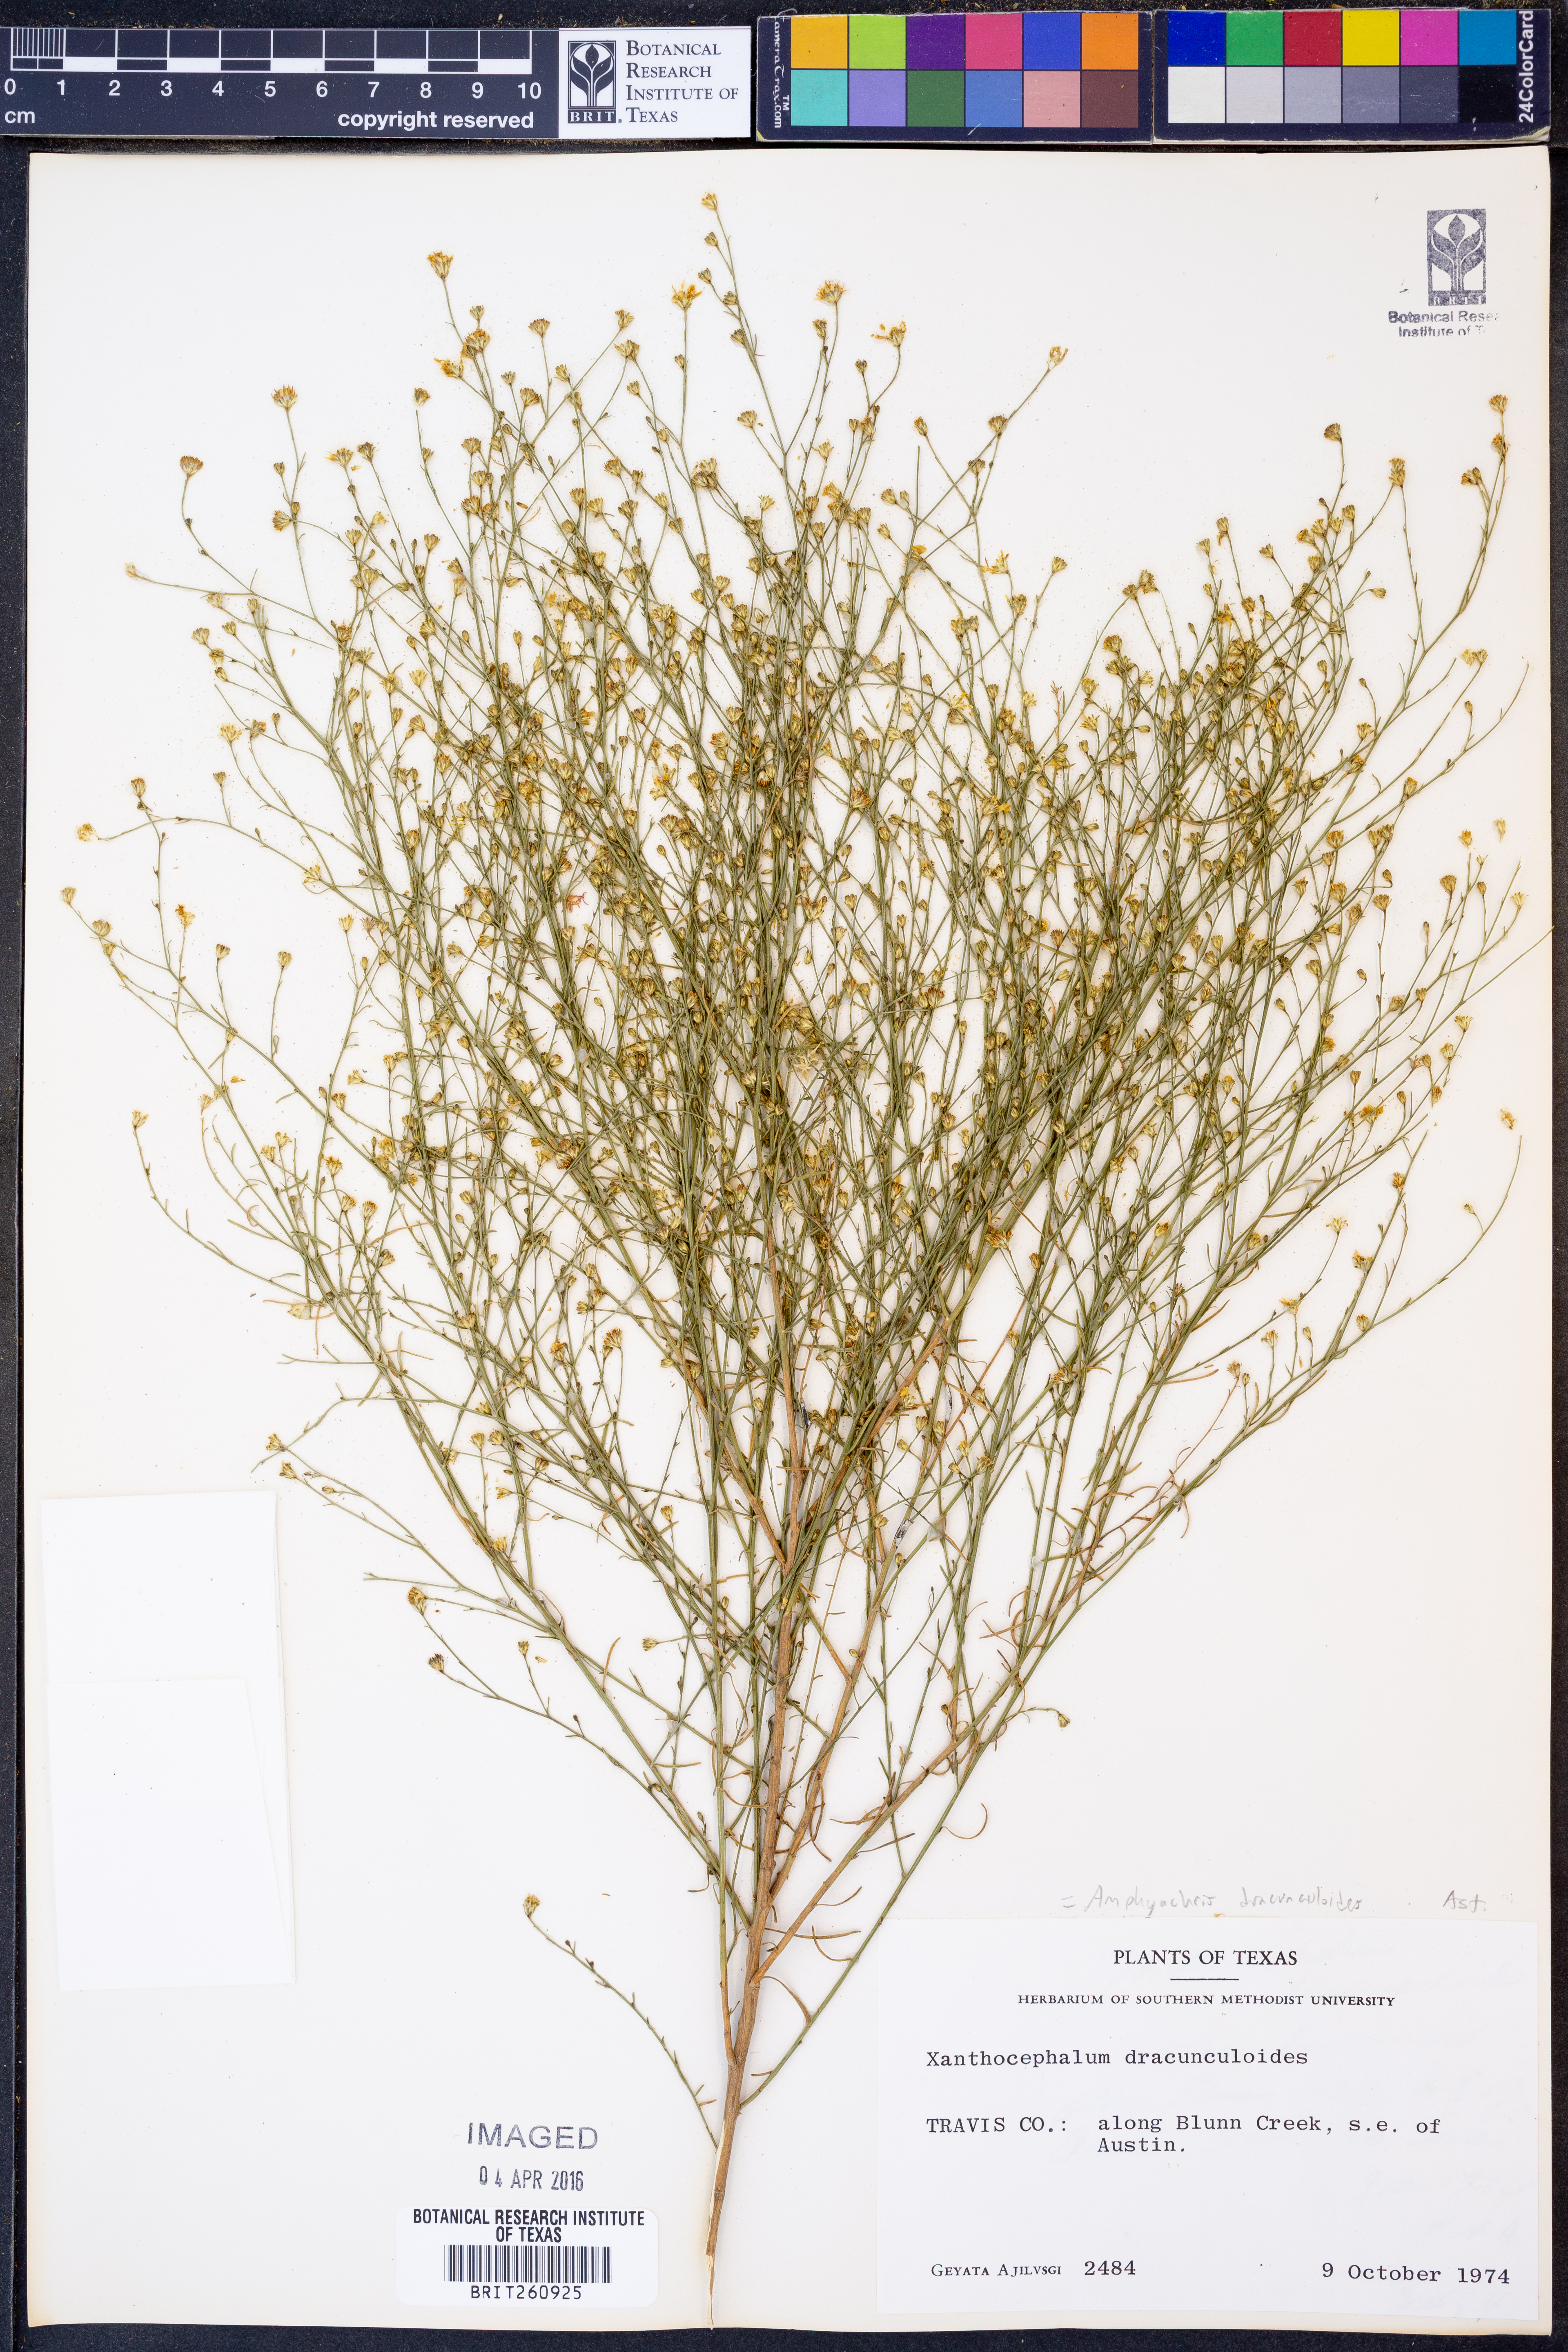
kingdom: Plantae
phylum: Tracheophyta
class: Magnoliopsida
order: Asterales
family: Asteraceae
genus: Amphiachyris
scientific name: Amphiachyris dracunculoides
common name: Broomweed
